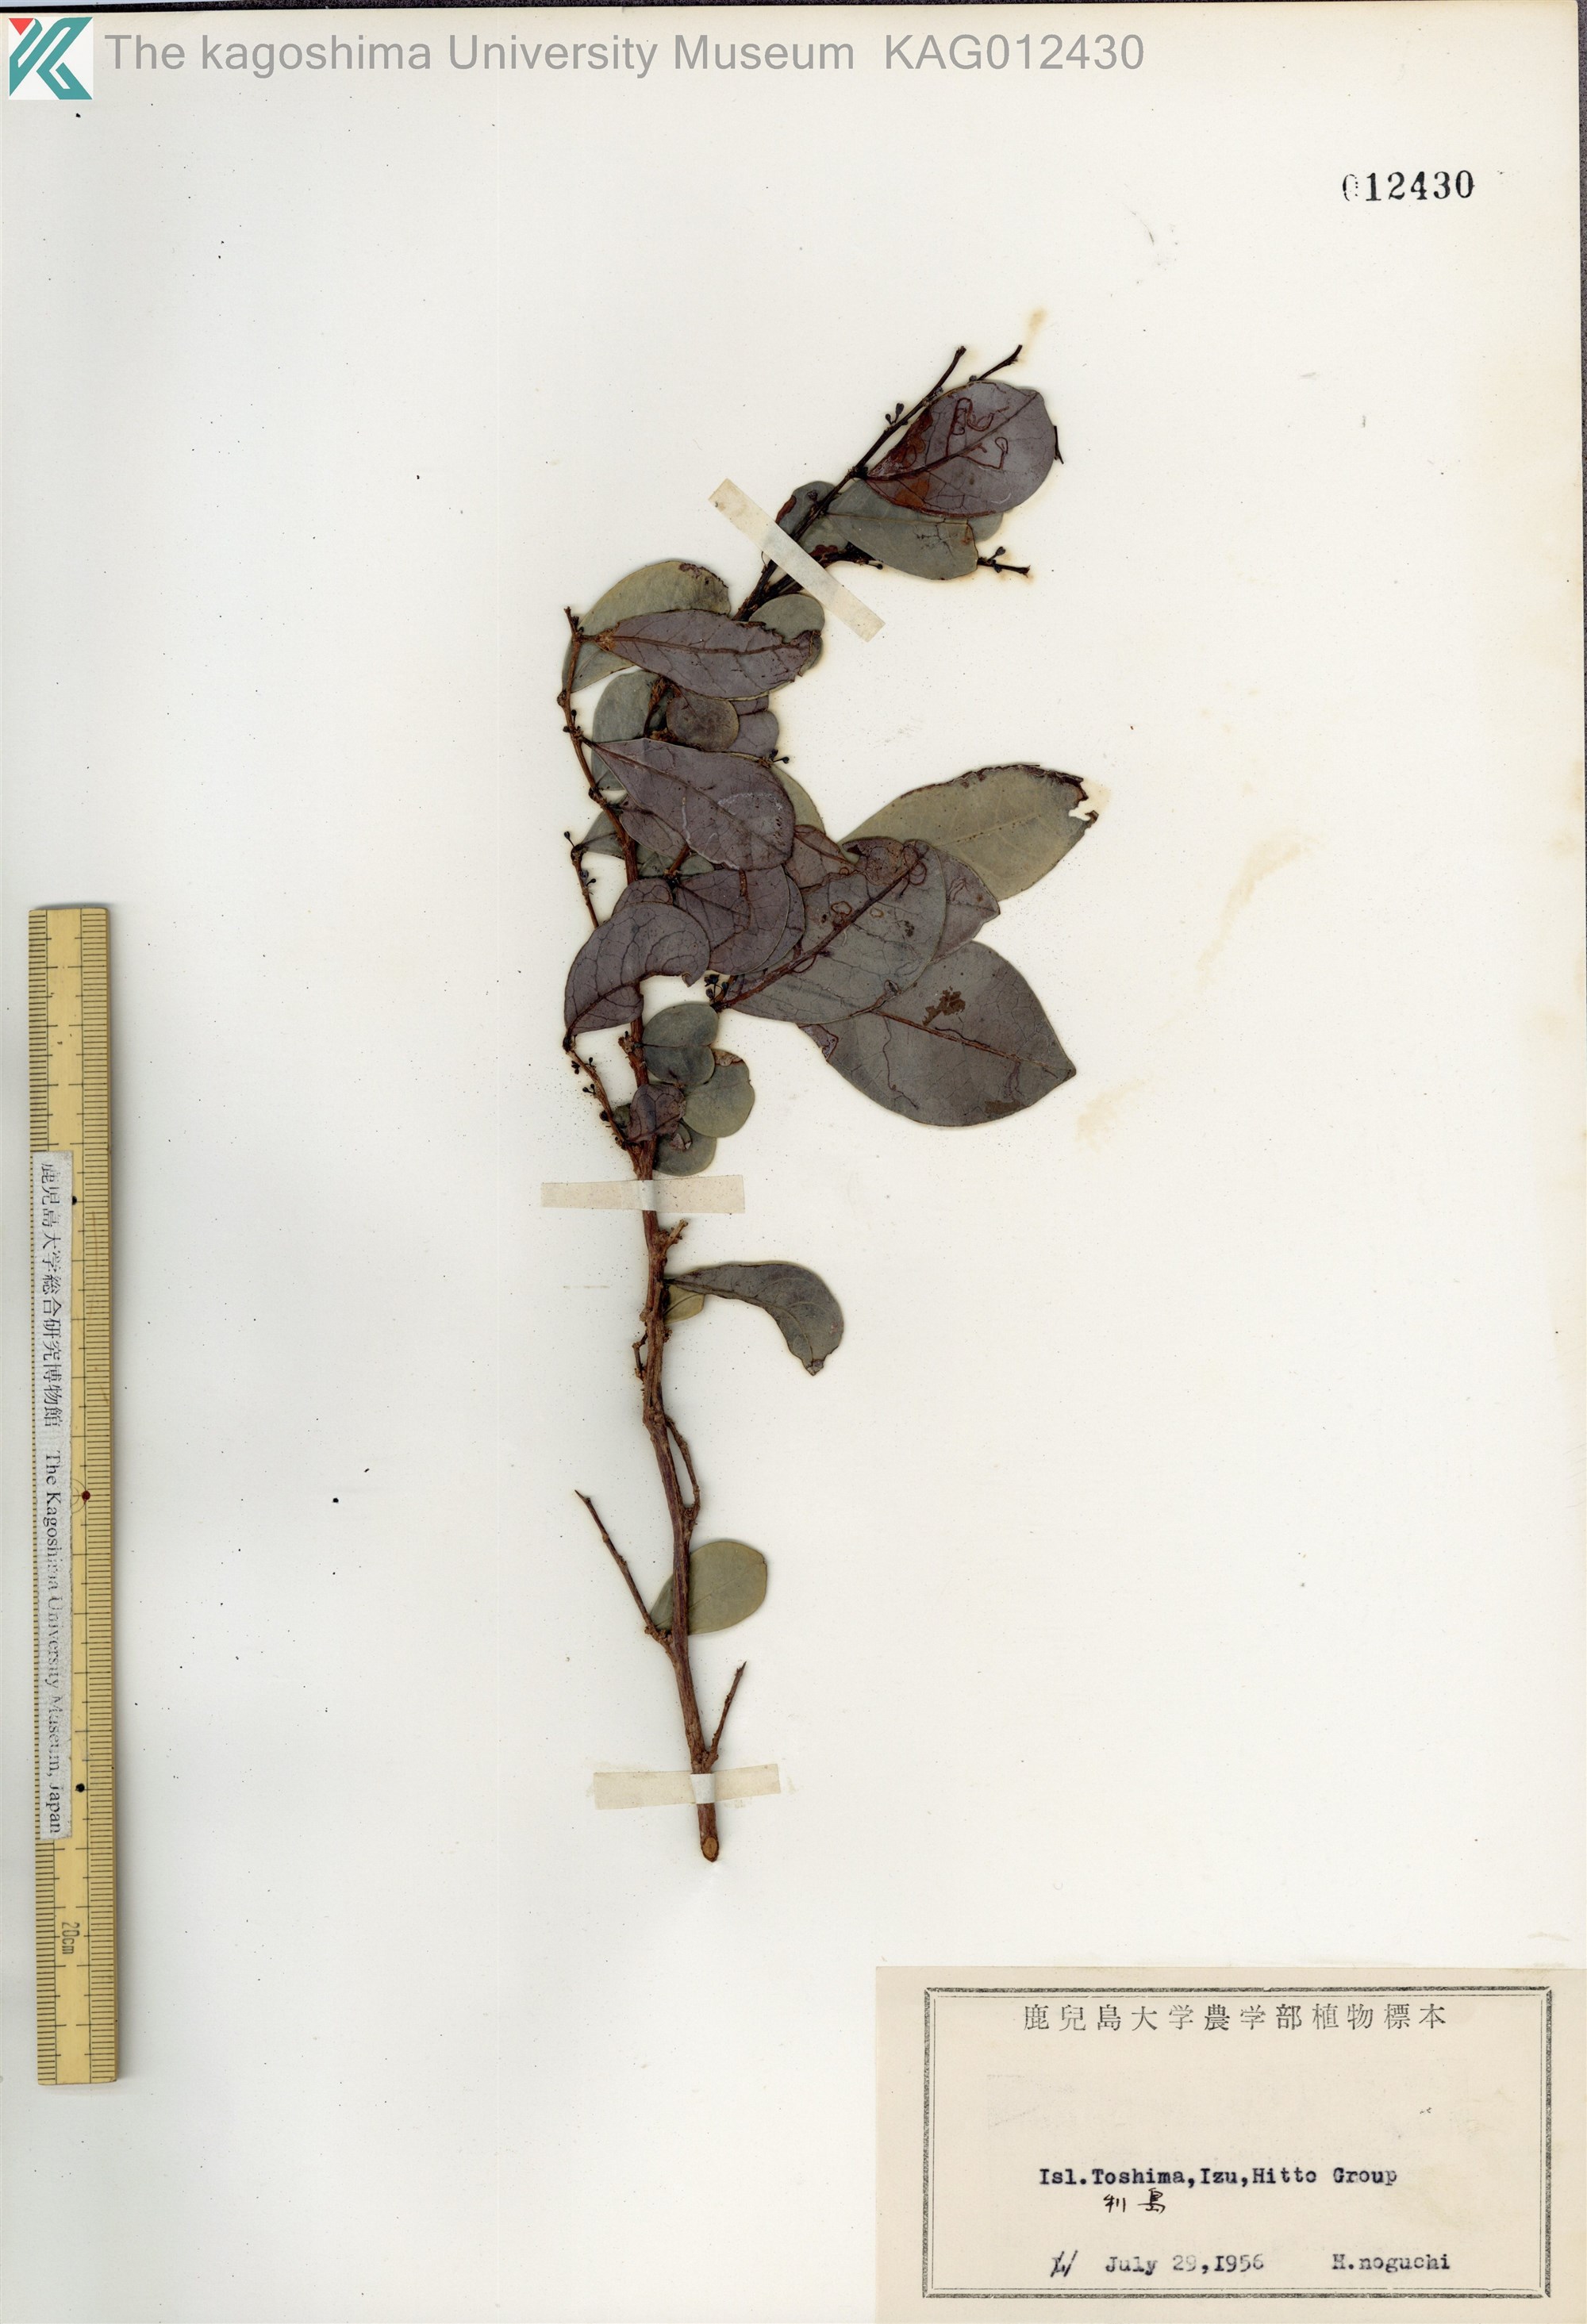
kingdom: Plantae
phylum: Tracheophyta
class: Magnoliopsida
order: Malpighiales
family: Phyllanthaceae
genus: Glochidion
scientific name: Glochidion obovatum
